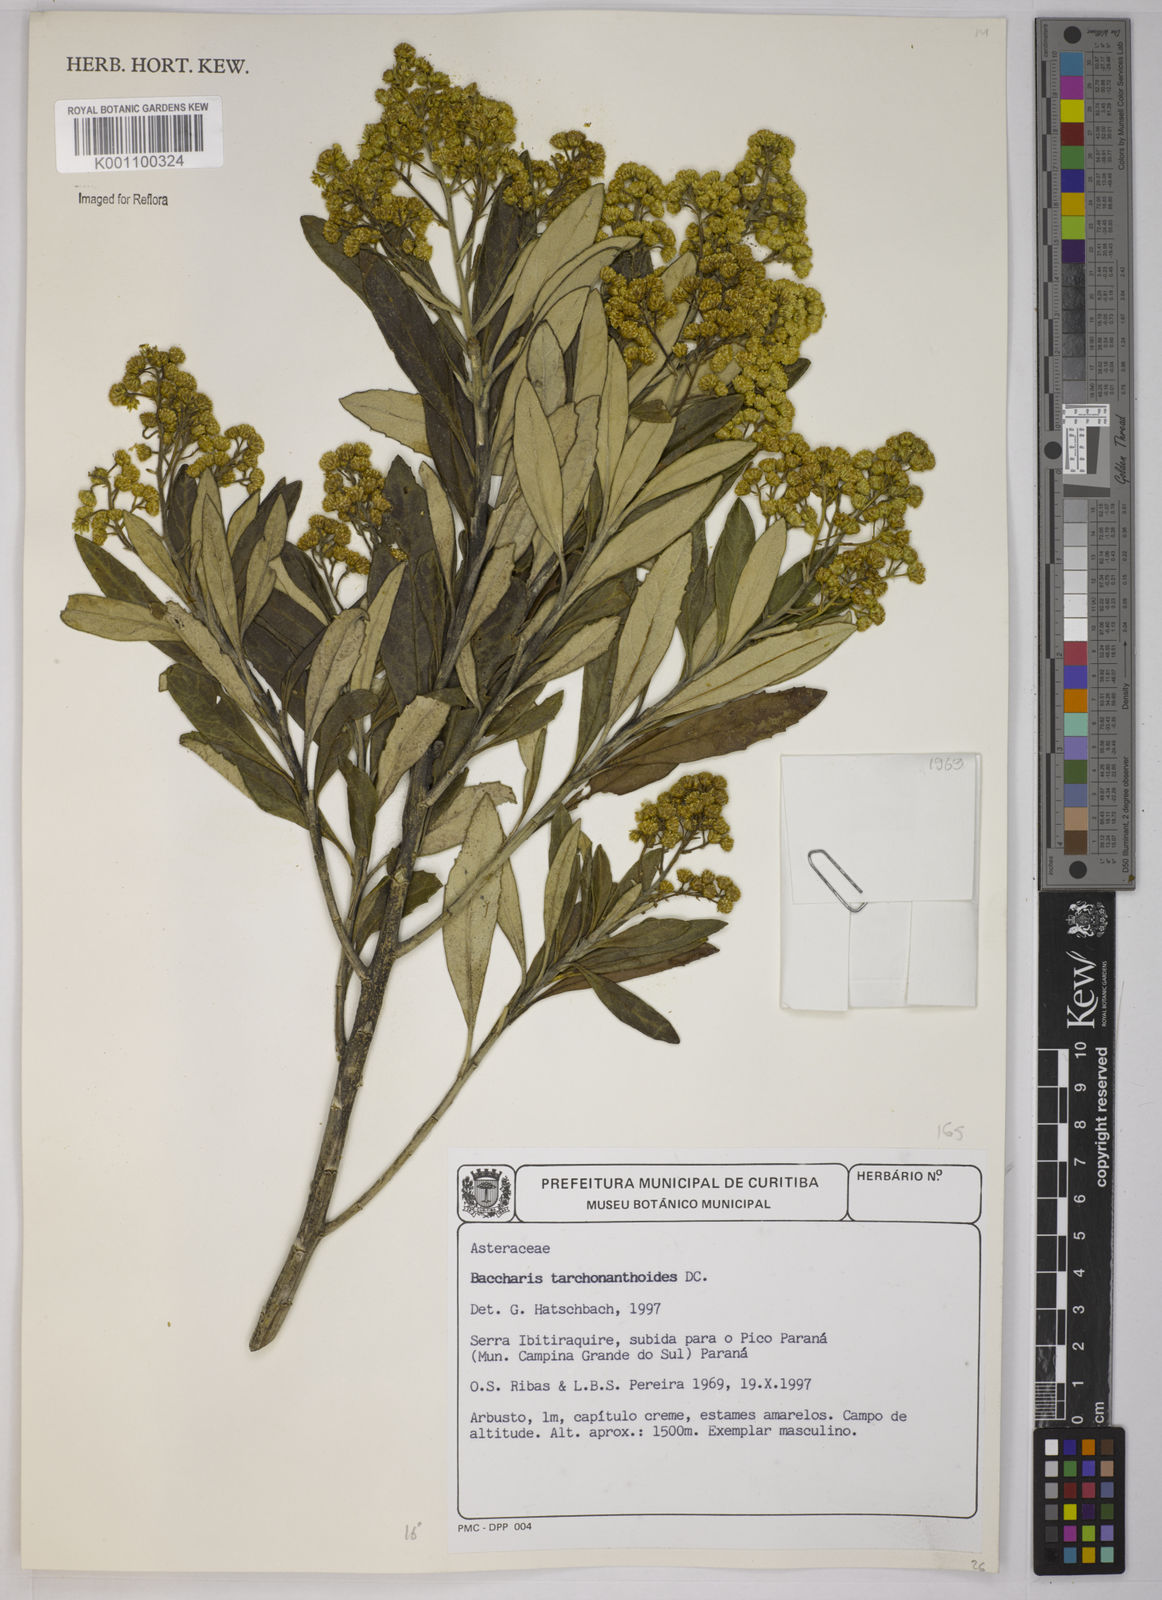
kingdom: Plantae
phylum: Tracheophyta
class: Magnoliopsida
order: Asterales
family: Asteraceae
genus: Baccharis
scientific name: Baccharis
